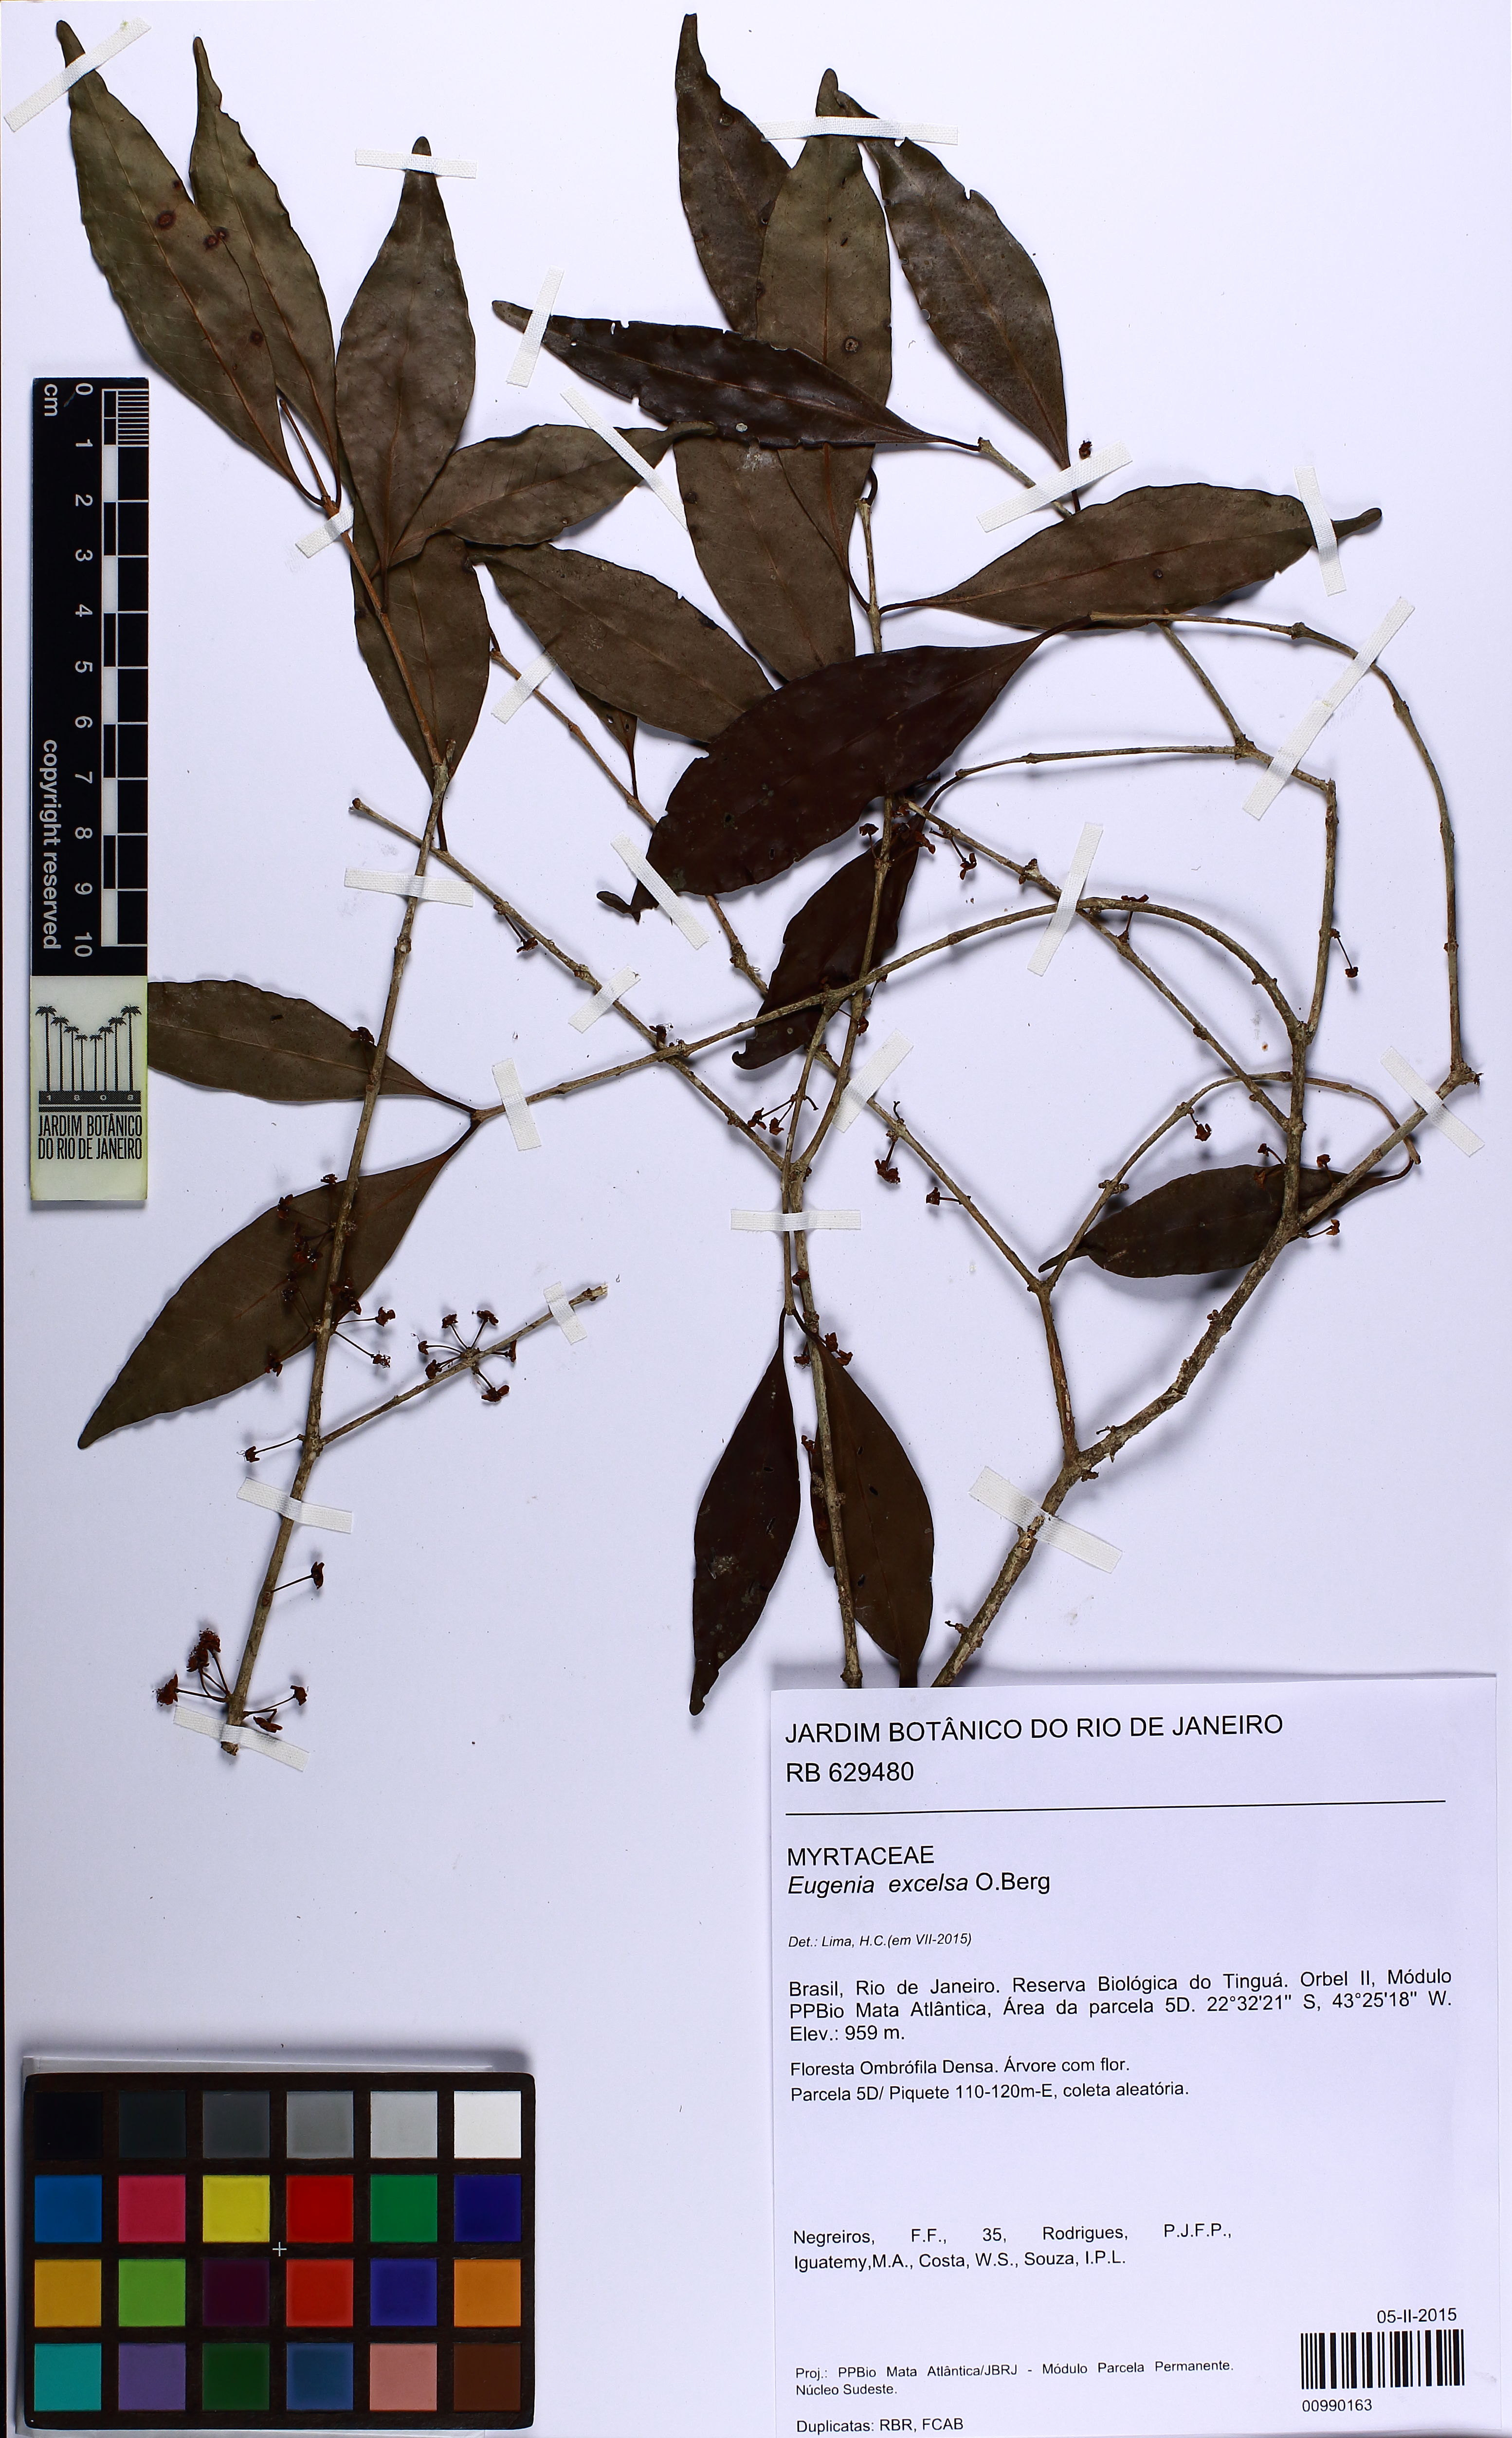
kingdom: Plantae
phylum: Tracheophyta
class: Magnoliopsida
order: Myrtales
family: Myrtaceae
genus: Eugenia
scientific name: Eugenia excelsa
